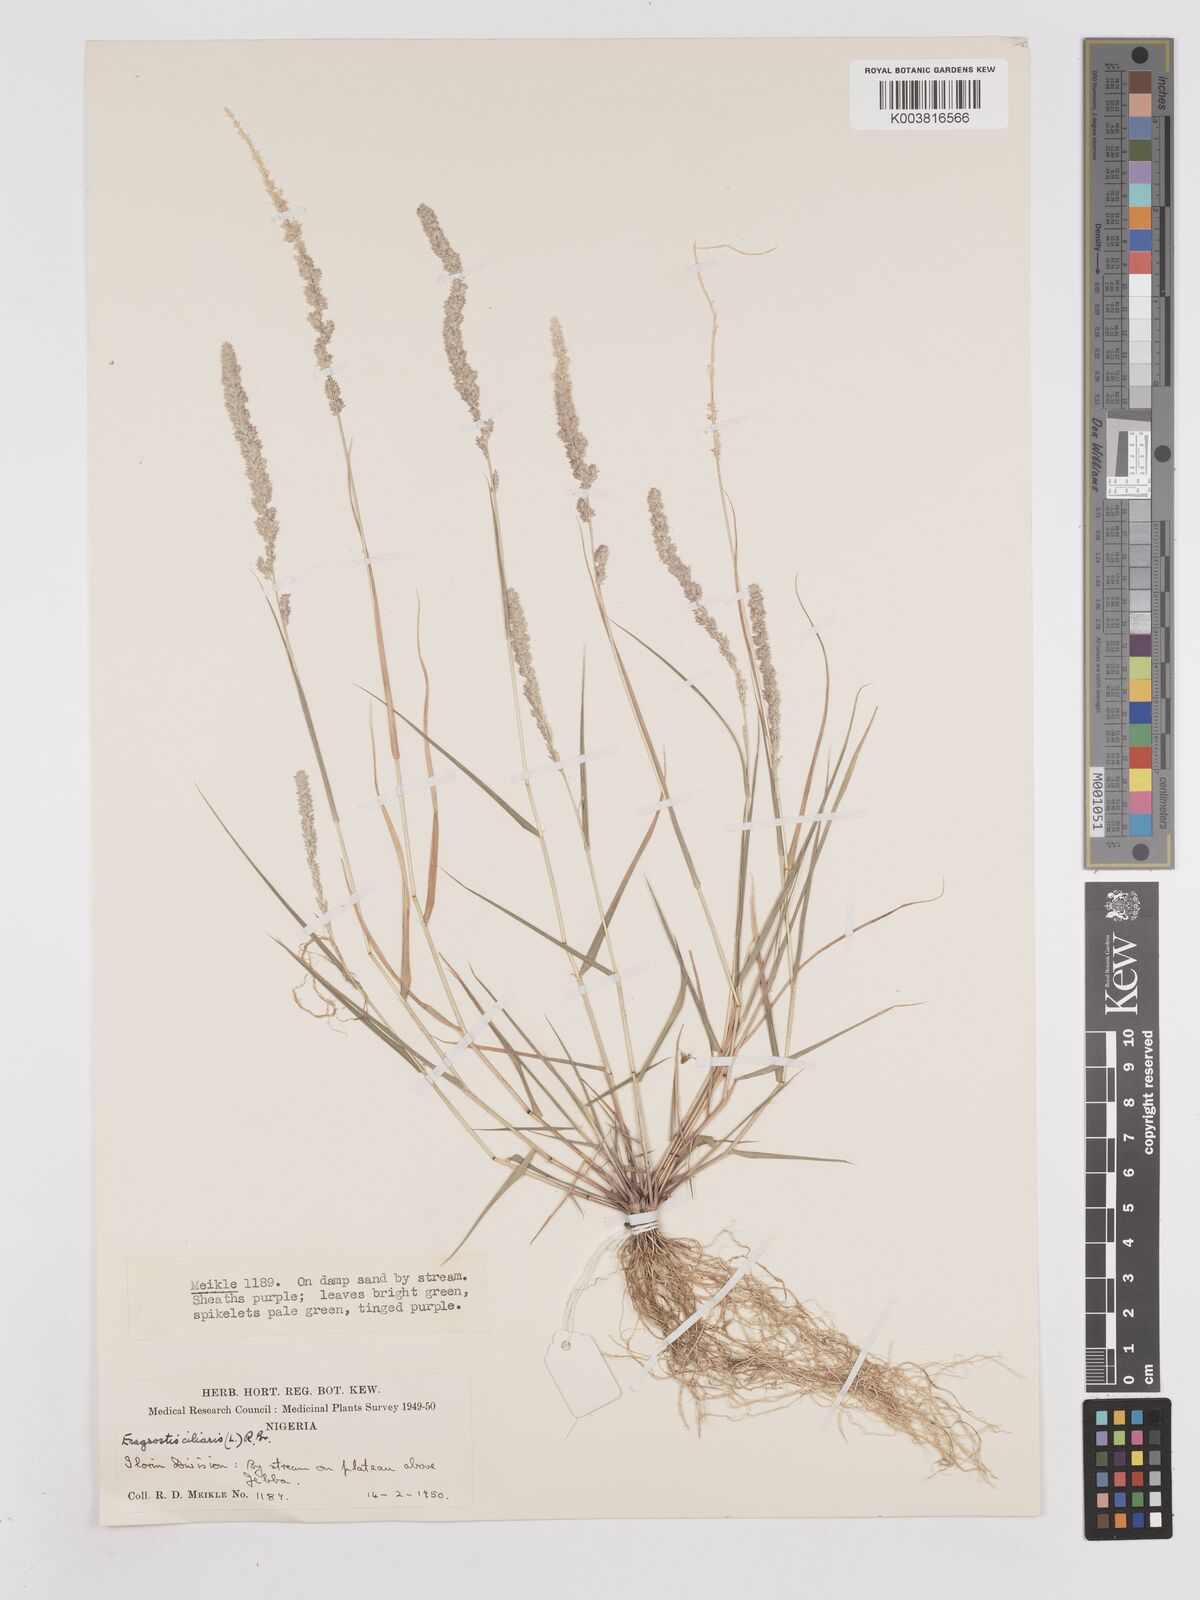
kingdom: Plantae
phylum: Tracheophyta
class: Liliopsida
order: Poales
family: Poaceae
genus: Eragrostis
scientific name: Eragrostis ciliaris
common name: Gophertail lovegrass
